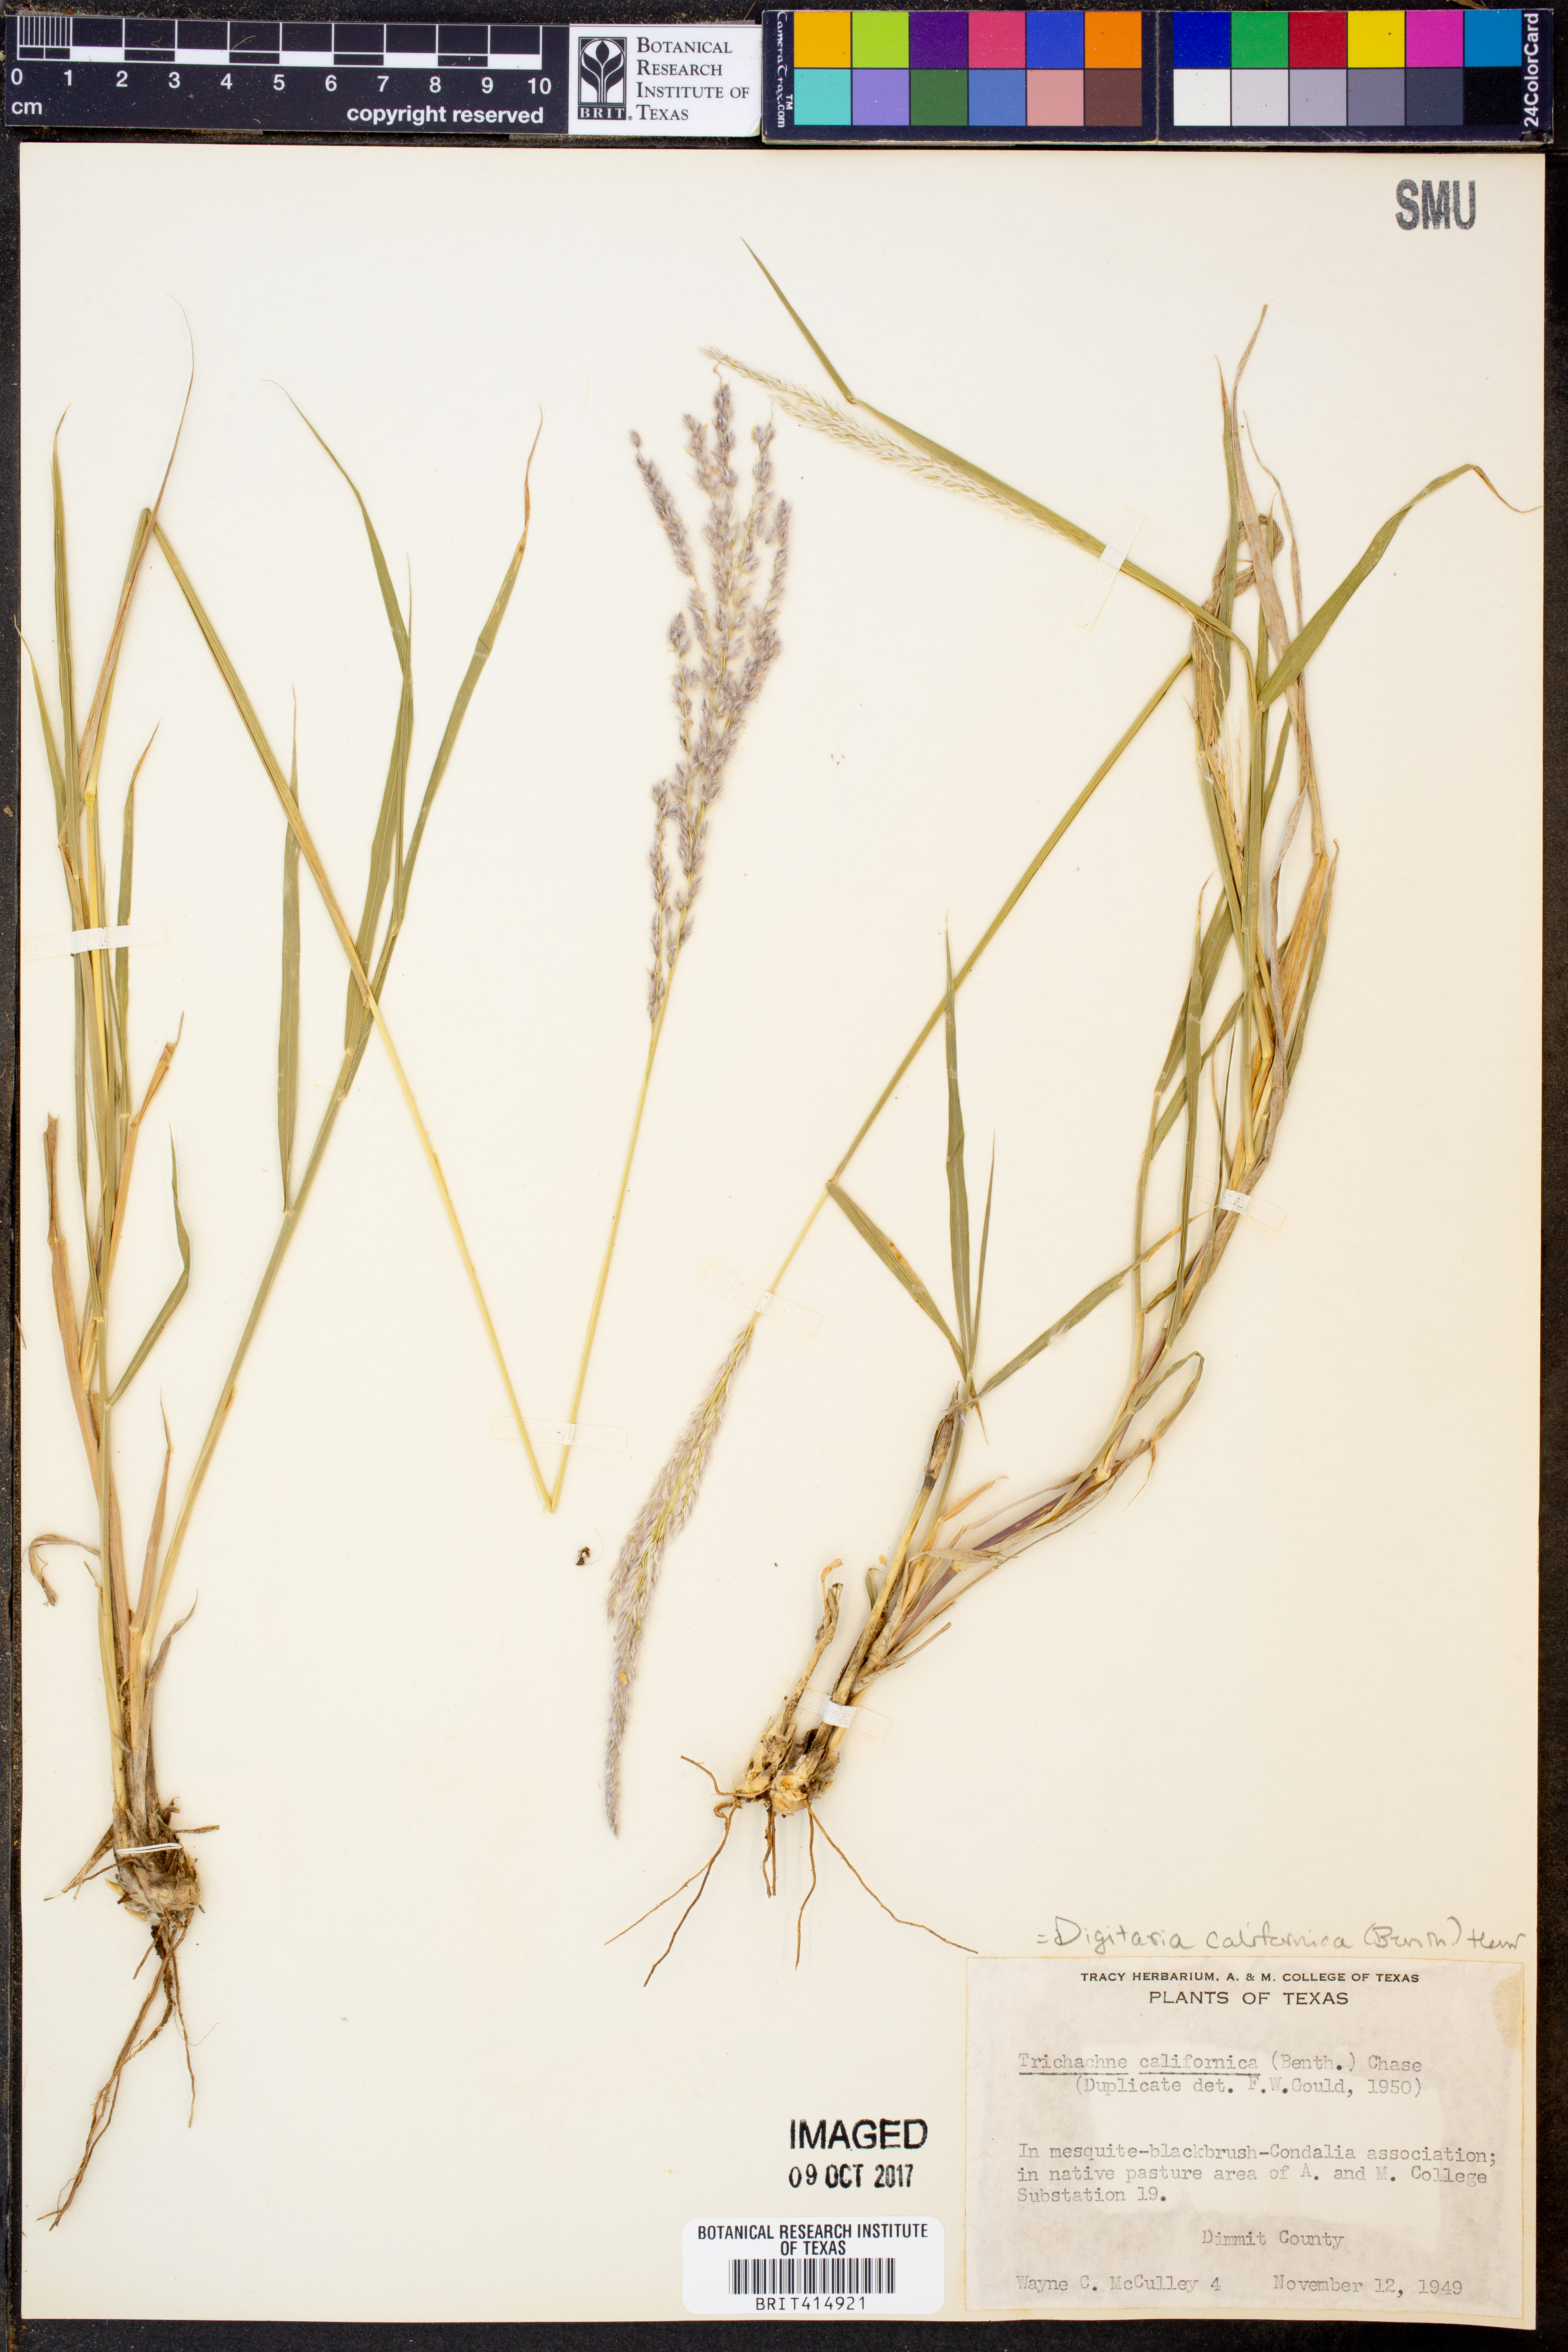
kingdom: Plantae
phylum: Tracheophyta
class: Liliopsida
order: Poales
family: Poaceae
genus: Digitaria
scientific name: Digitaria californica
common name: Arizona cottontop
